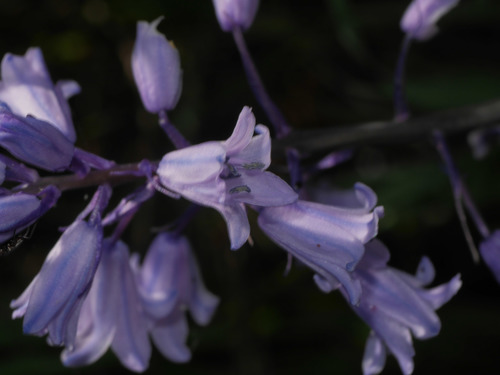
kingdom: Plantae
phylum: Tracheophyta
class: Liliopsida
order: Asparagales
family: Asparagaceae
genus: Hyacinthoides
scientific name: Hyacinthoides hispanica
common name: Spanish bluebell
